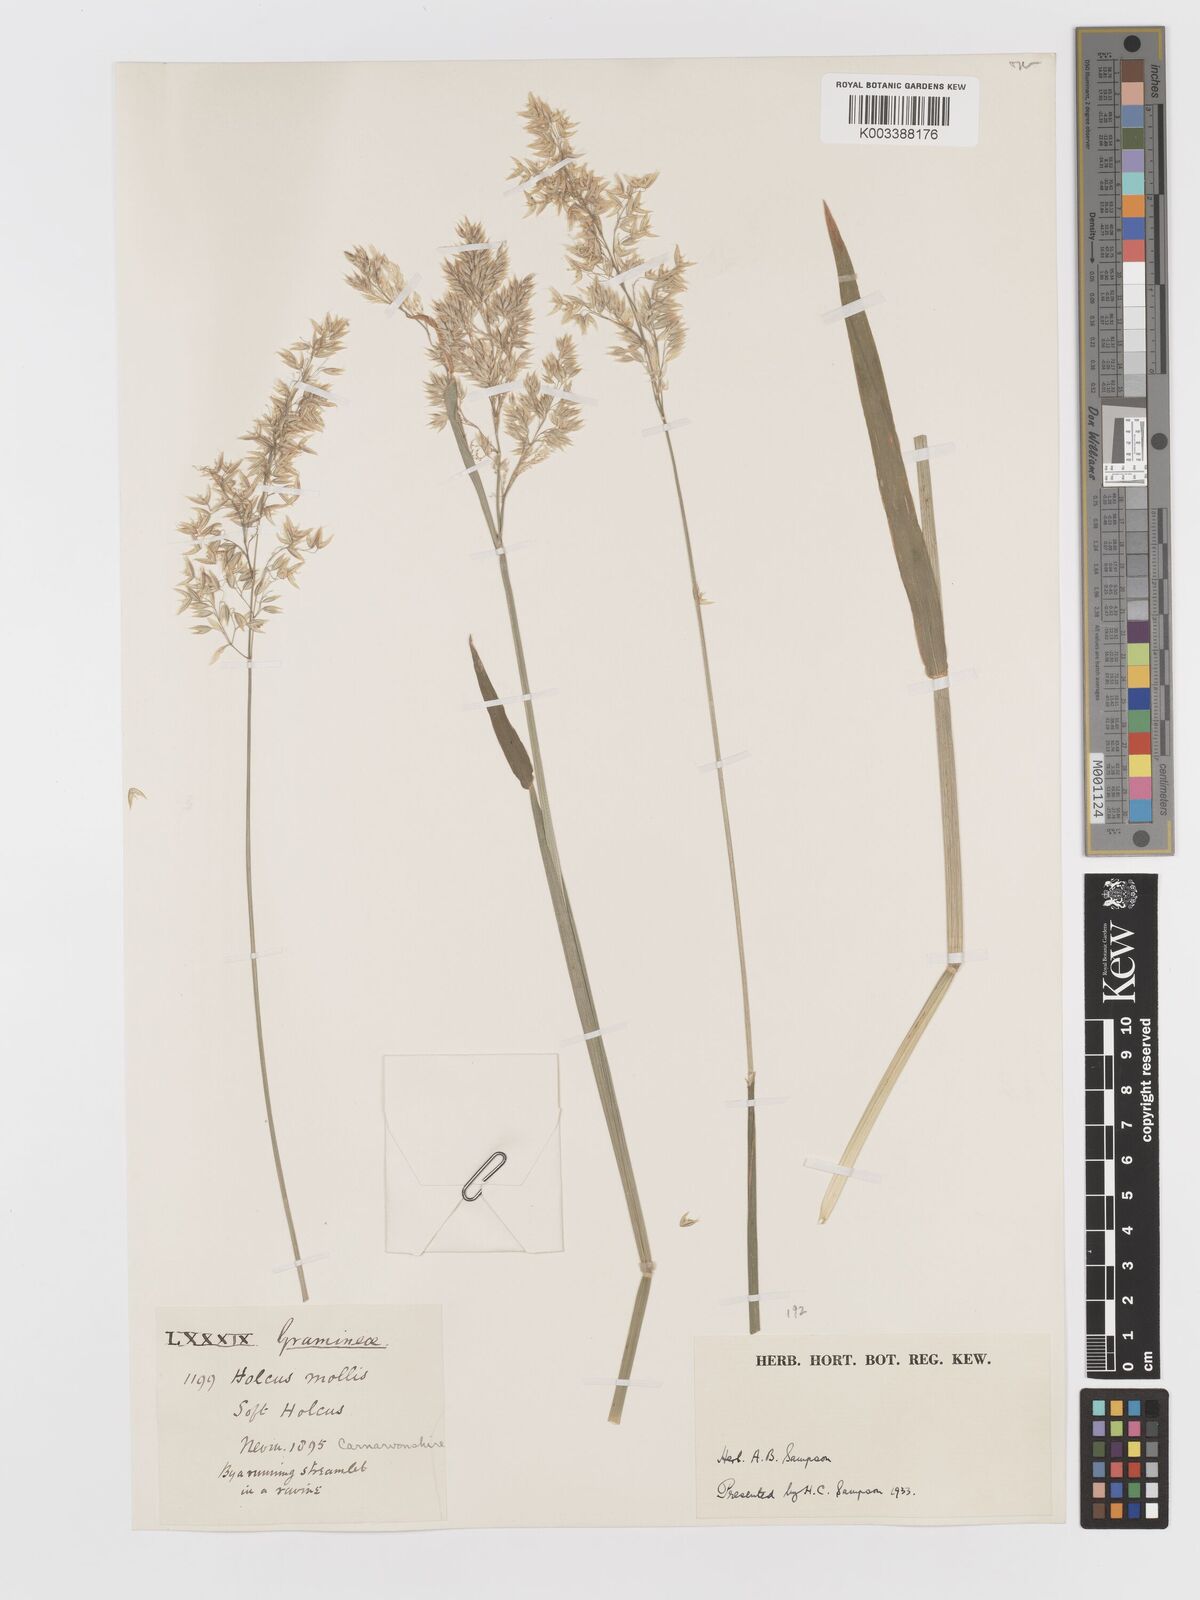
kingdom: Plantae
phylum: Tracheophyta
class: Liliopsida
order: Poales
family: Poaceae
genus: Holcus
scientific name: Holcus mollis
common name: Creeping velvetgrass
